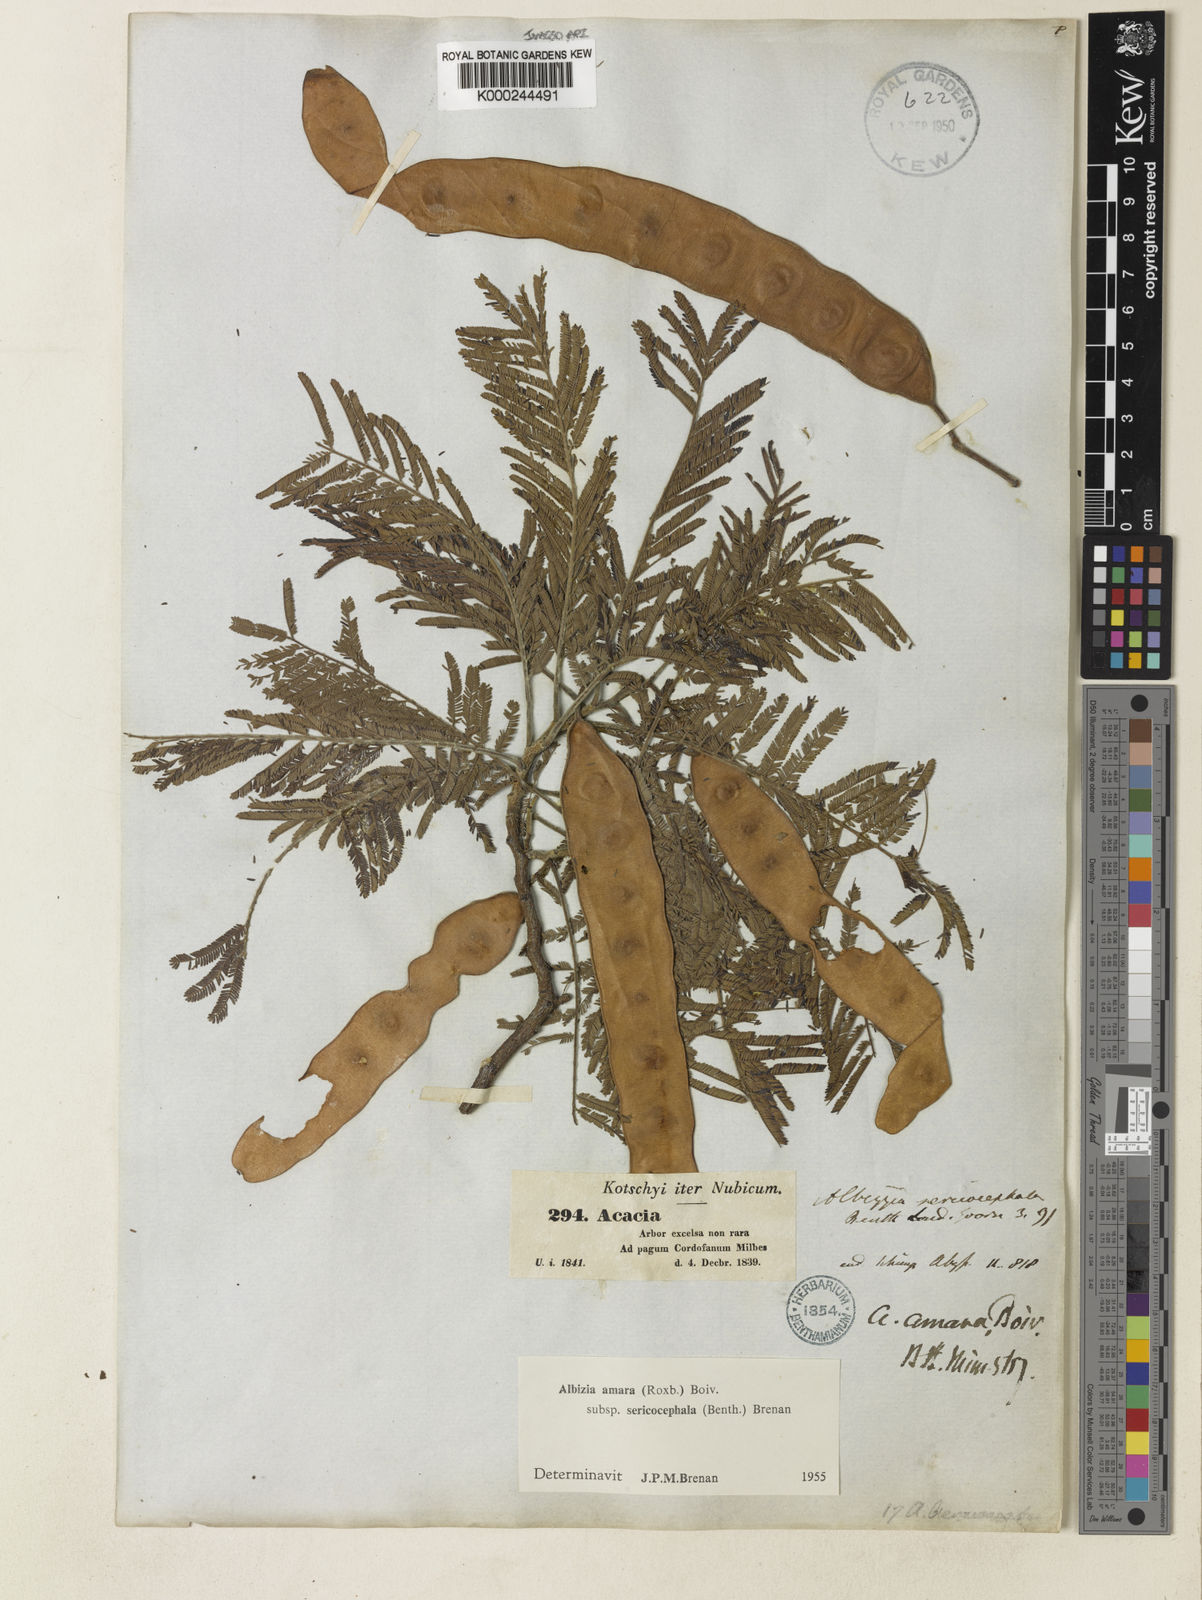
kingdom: Plantae
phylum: Tracheophyta
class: Magnoliopsida
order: Fabales
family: Fabaceae
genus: Albizia
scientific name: Albizia amara
